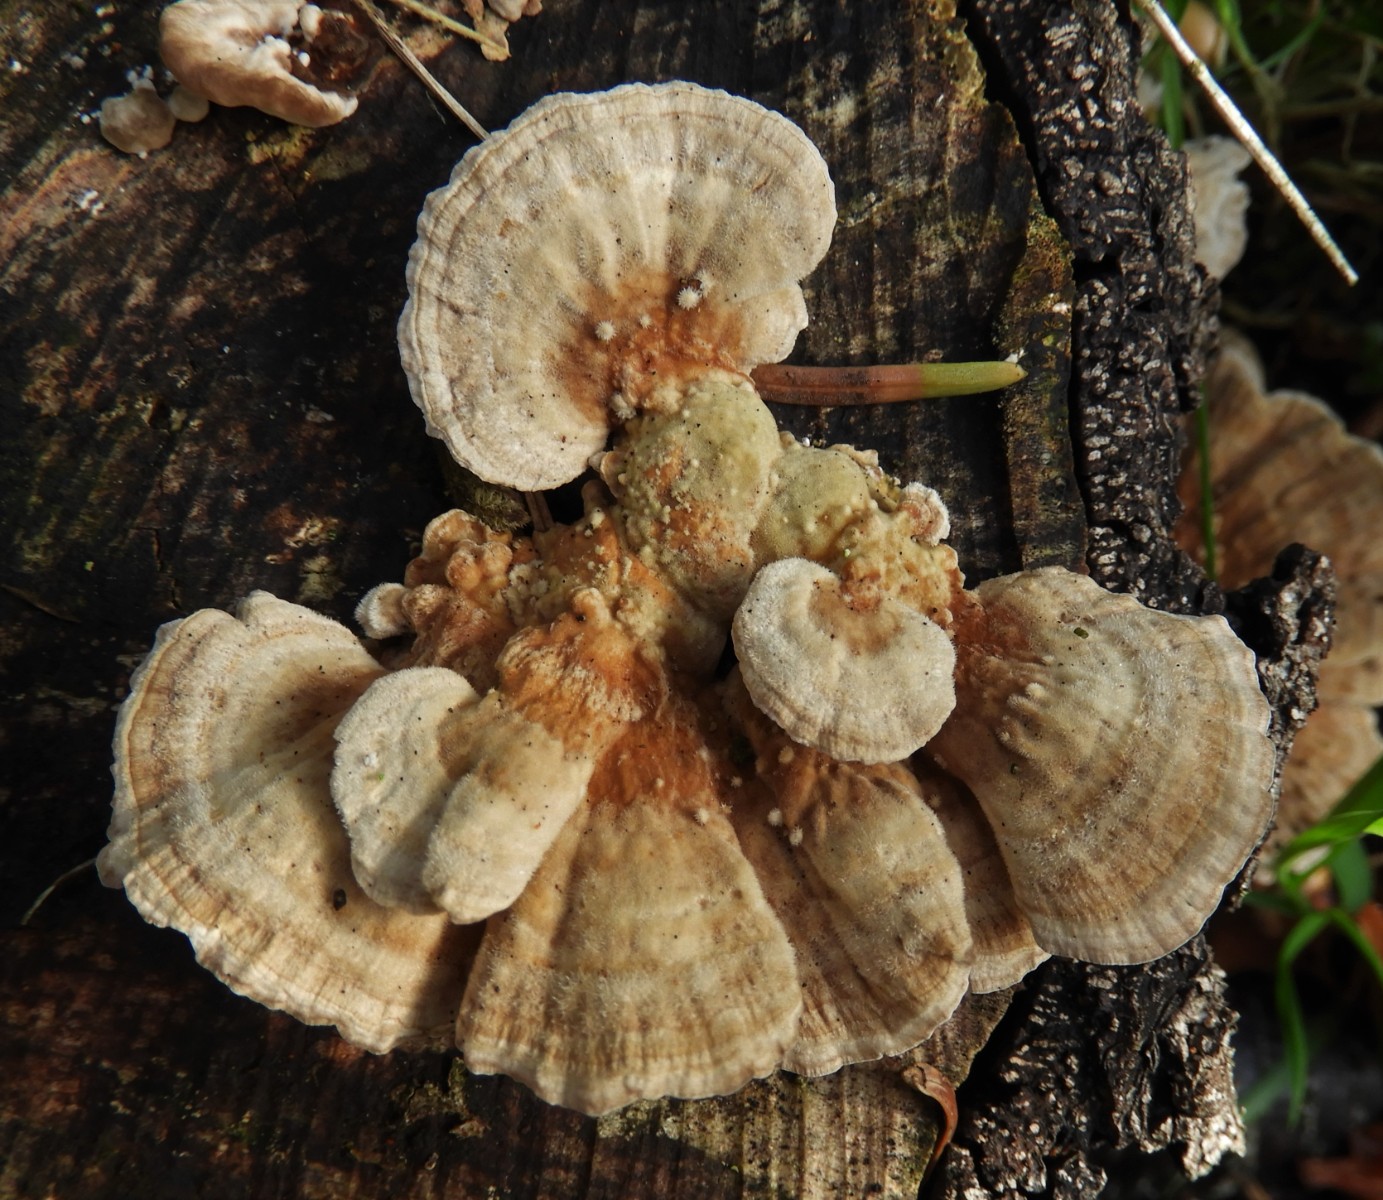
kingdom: Fungi
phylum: Basidiomycota
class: Agaricomycetes
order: Polyporales
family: Polyporaceae
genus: Trametes
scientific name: Trametes ochracea
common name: bæltet læderporesvamp
